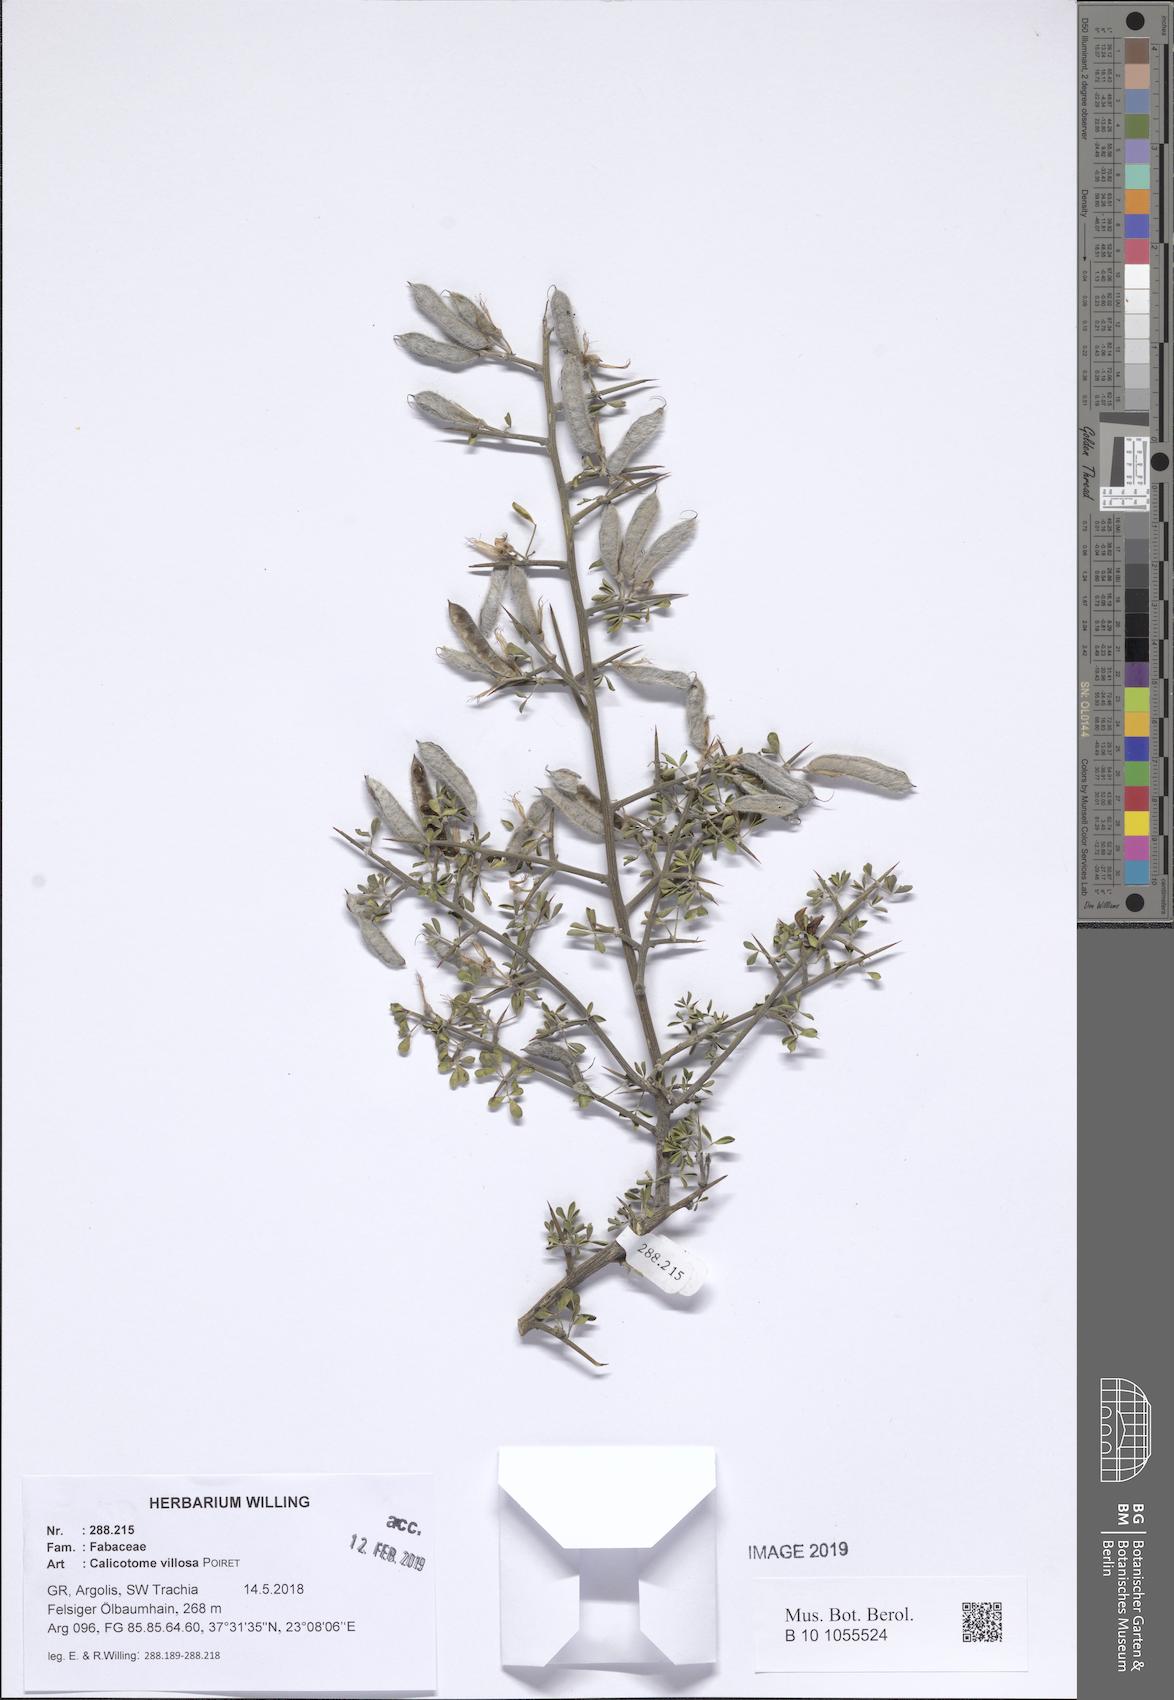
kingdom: Plantae
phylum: Tracheophyta
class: Magnoliopsida
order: Fabales
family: Fabaceae
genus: Calicotome
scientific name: Calicotome villosa
